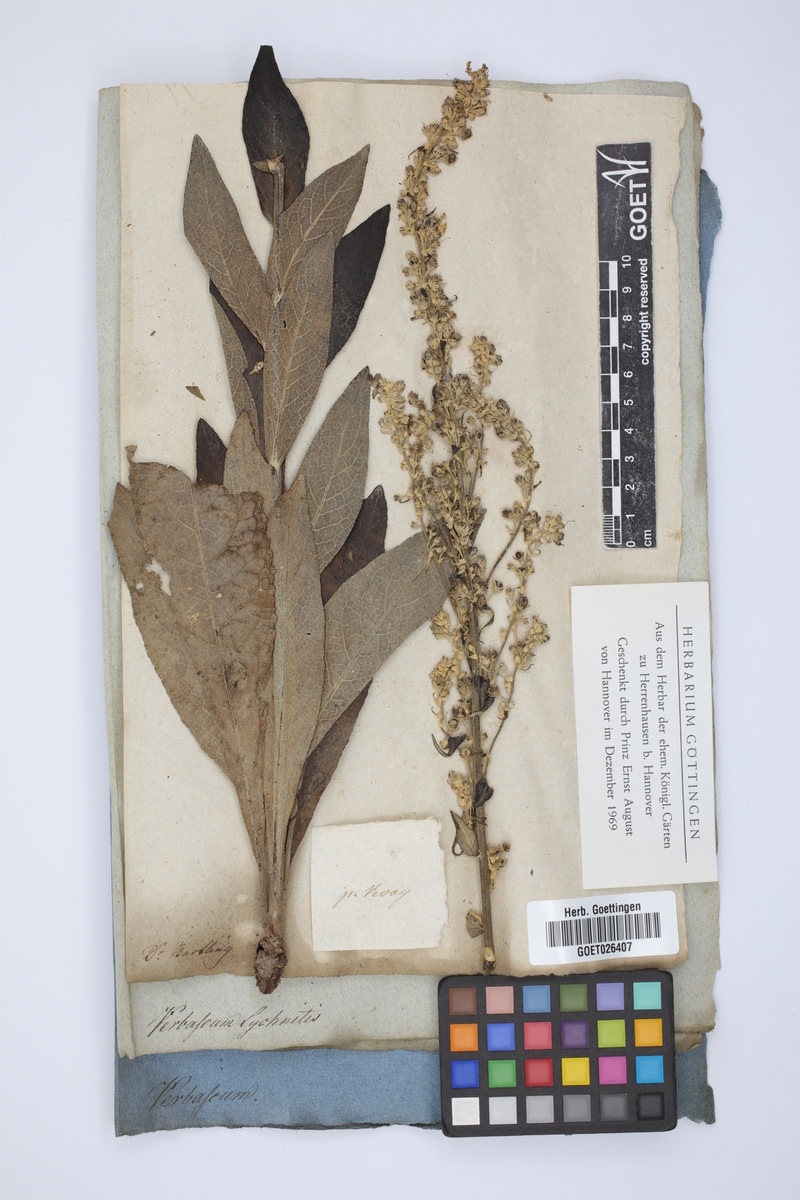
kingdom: Plantae
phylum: Tracheophyta
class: Magnoliopsida
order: Lamiales
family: Scrophulariaceae
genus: Verbascum
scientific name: Verbascum lychnitis
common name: White mullein
